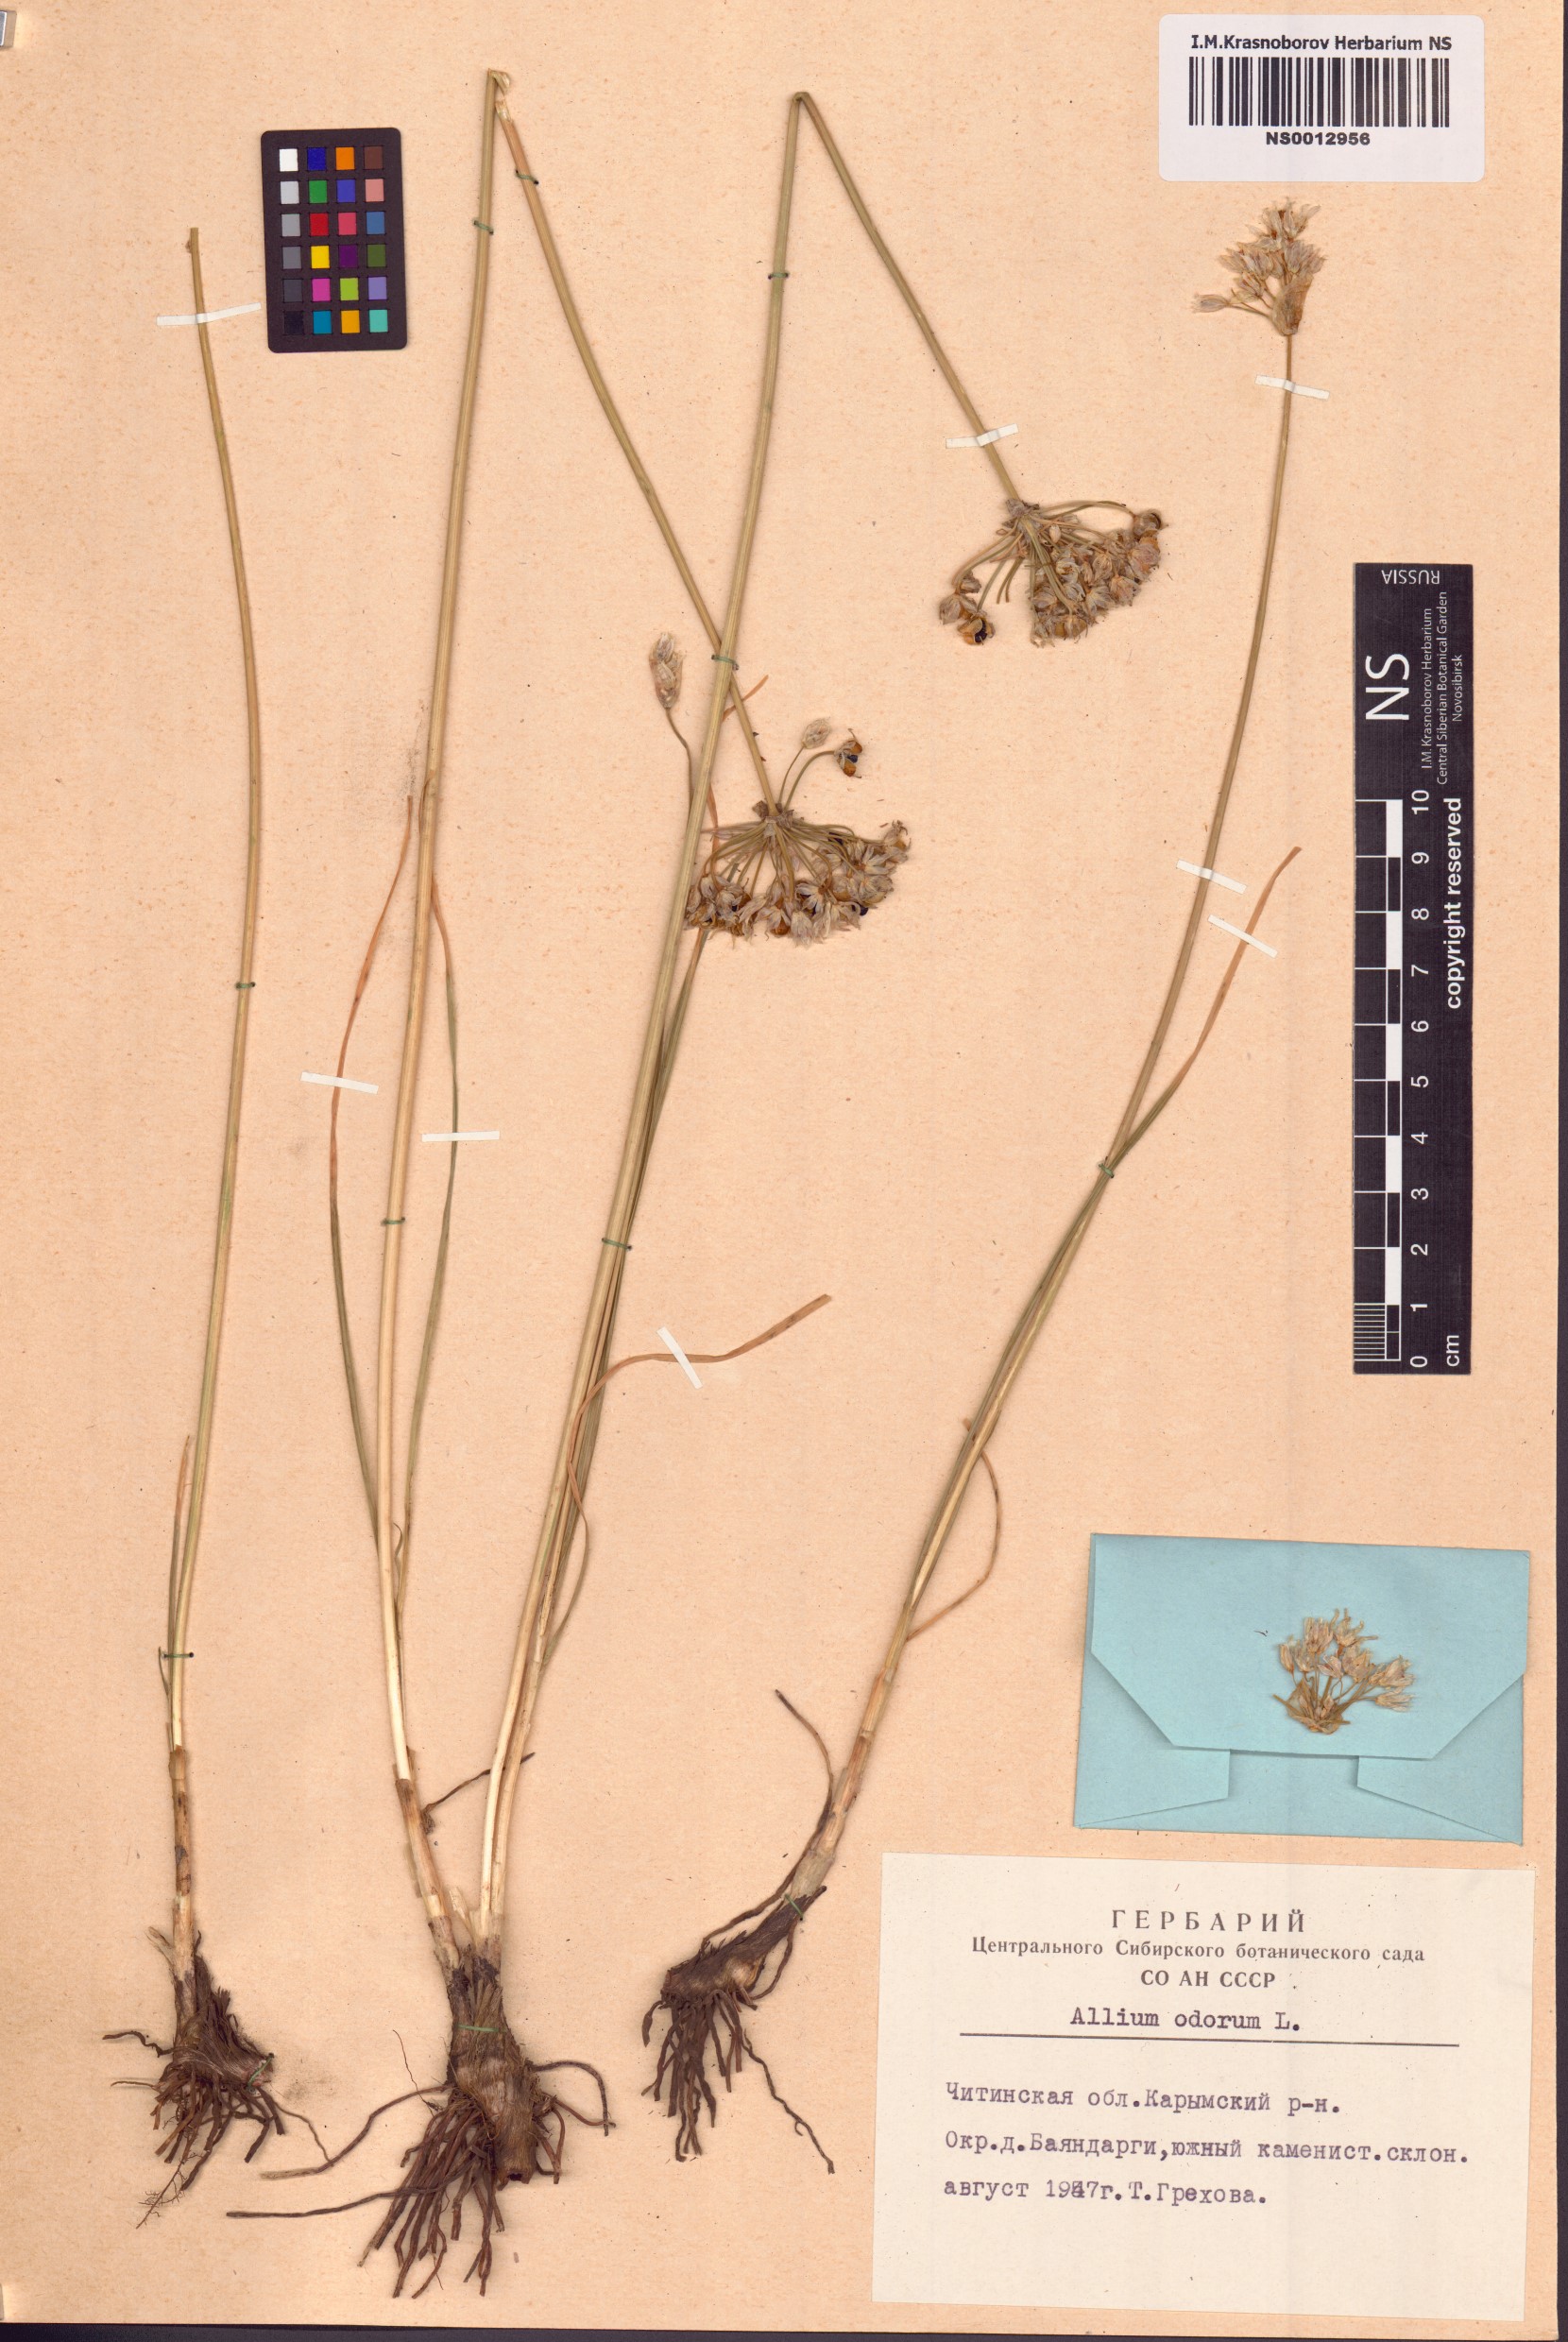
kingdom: Plantae
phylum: Tracheophyta
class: Liliopsida
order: Asparagales
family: Amaryllidaceae
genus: Allium
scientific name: Allium ramosum
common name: Fragrant garlic
